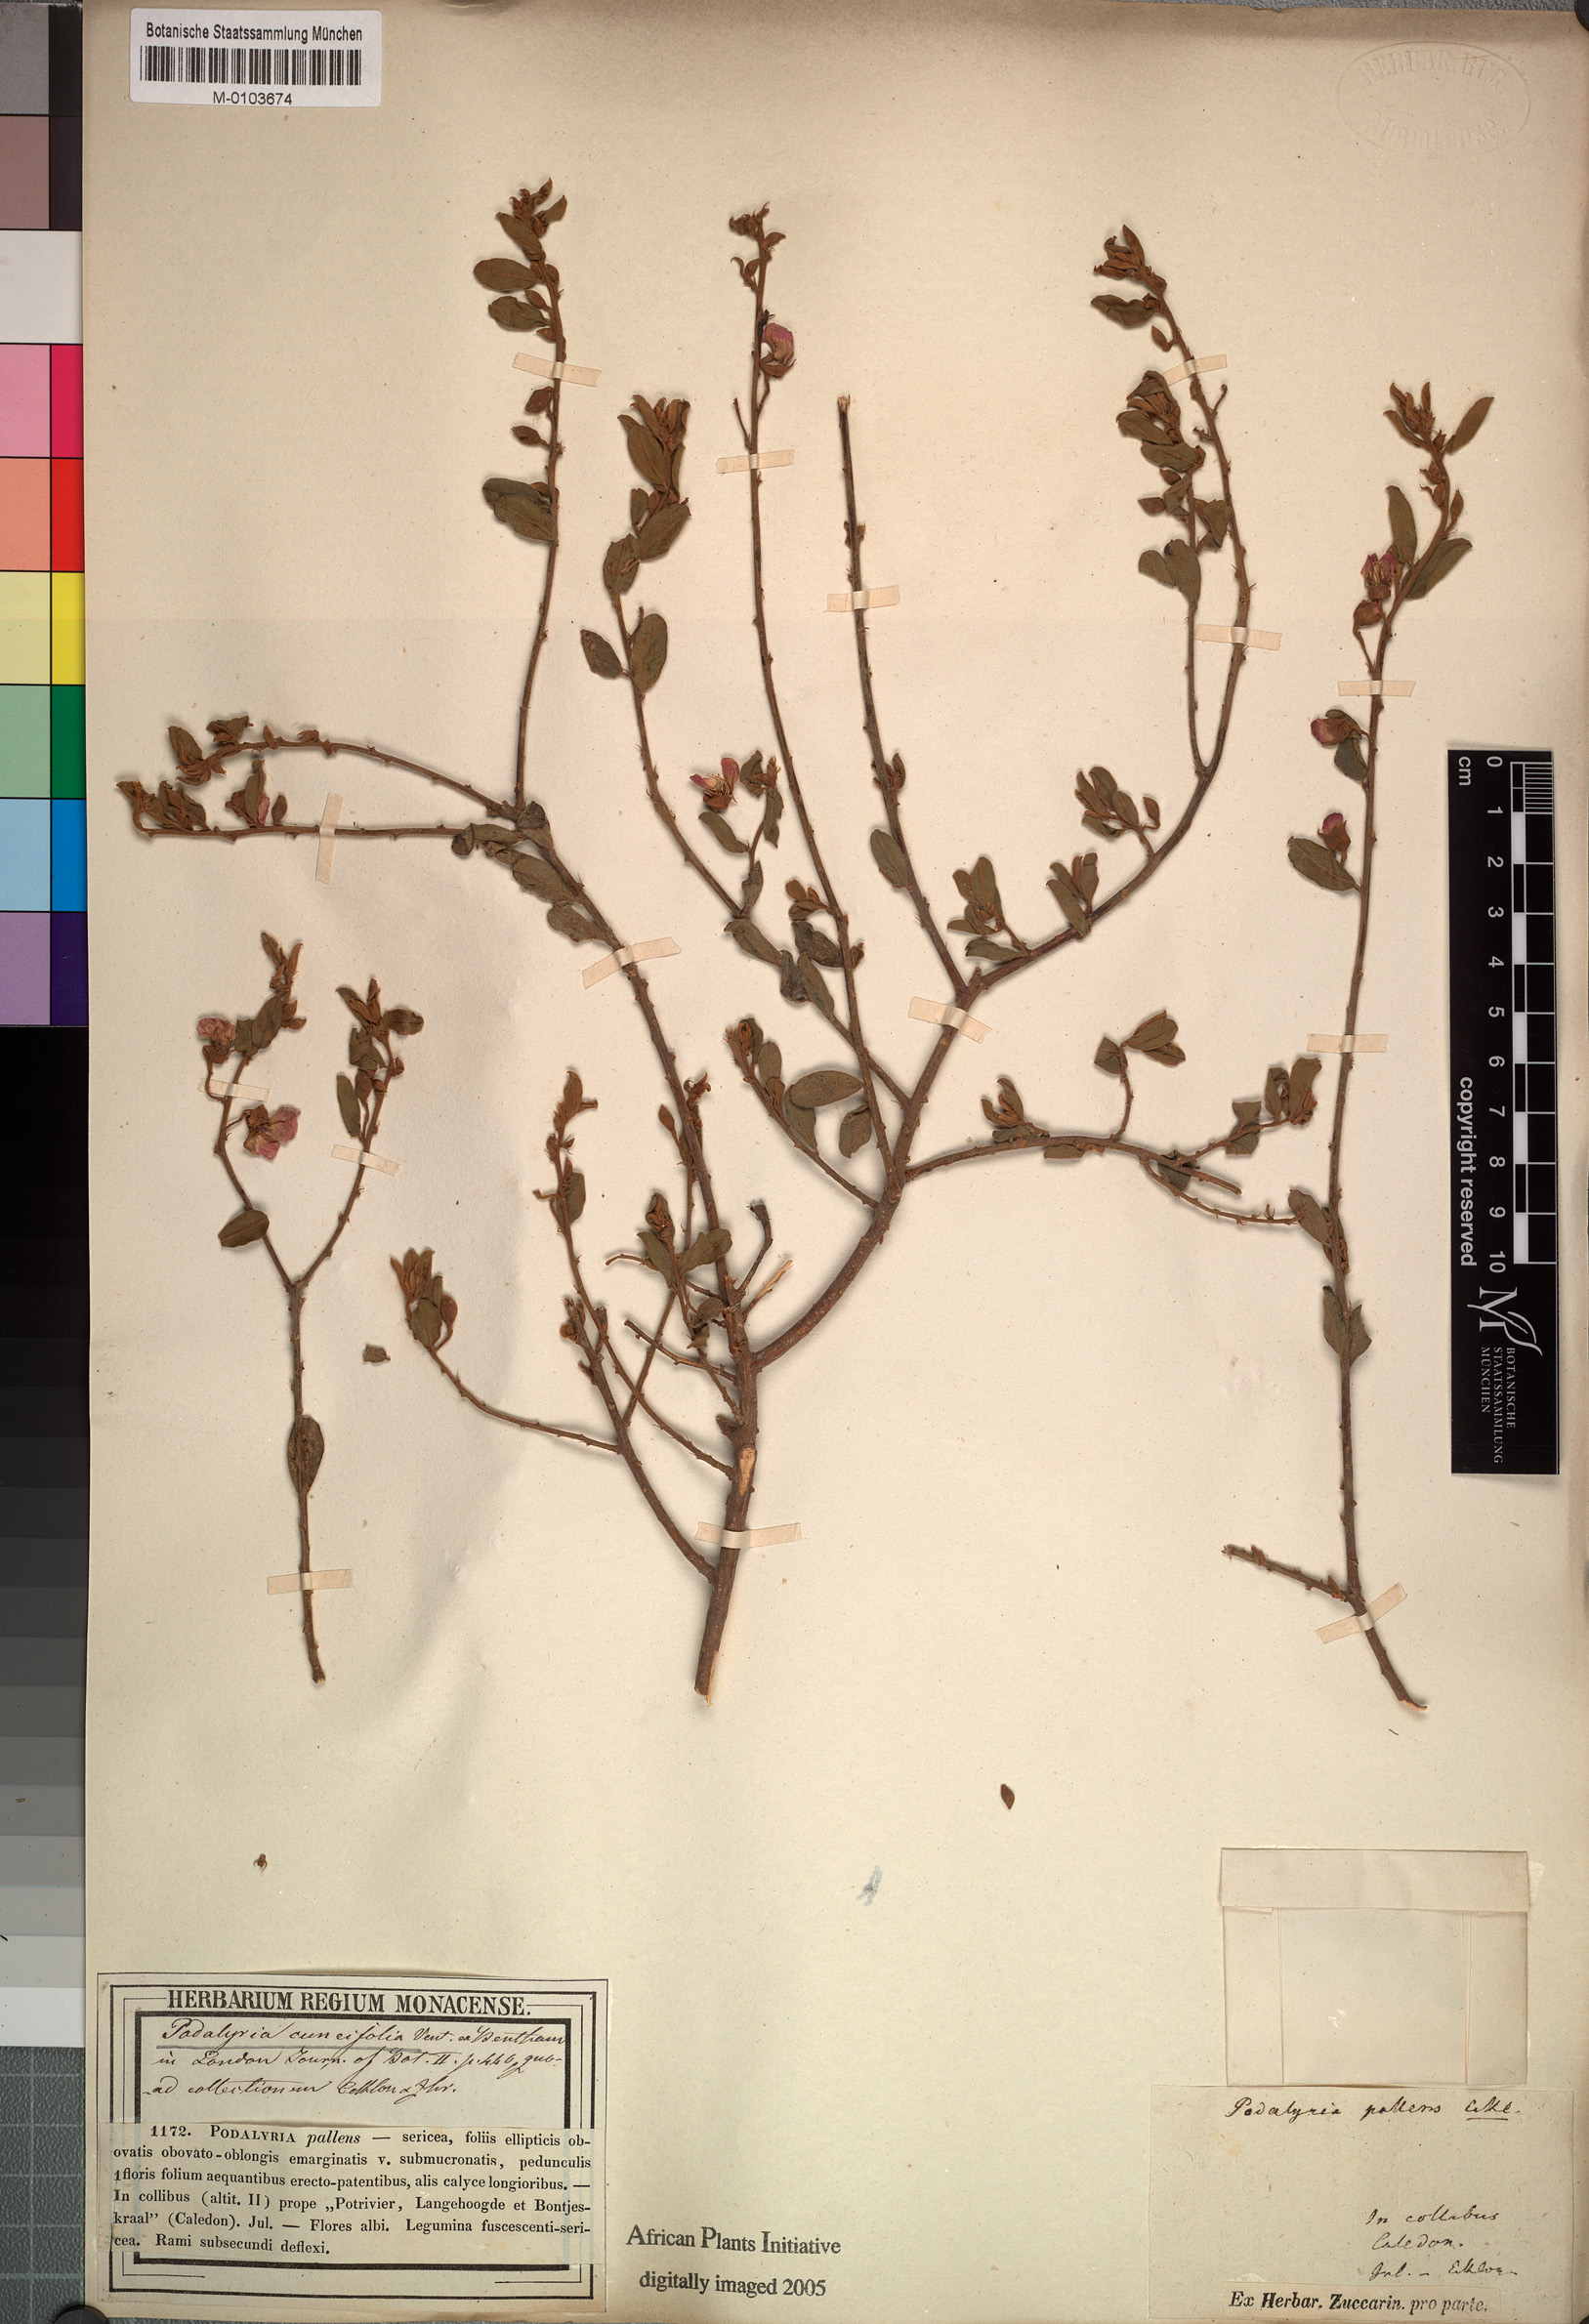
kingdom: Plantae
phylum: Tracheophyta
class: Magnoliopsida
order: Fabales
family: Fabaceae
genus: Podalyria
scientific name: Podalyria racemulosa
